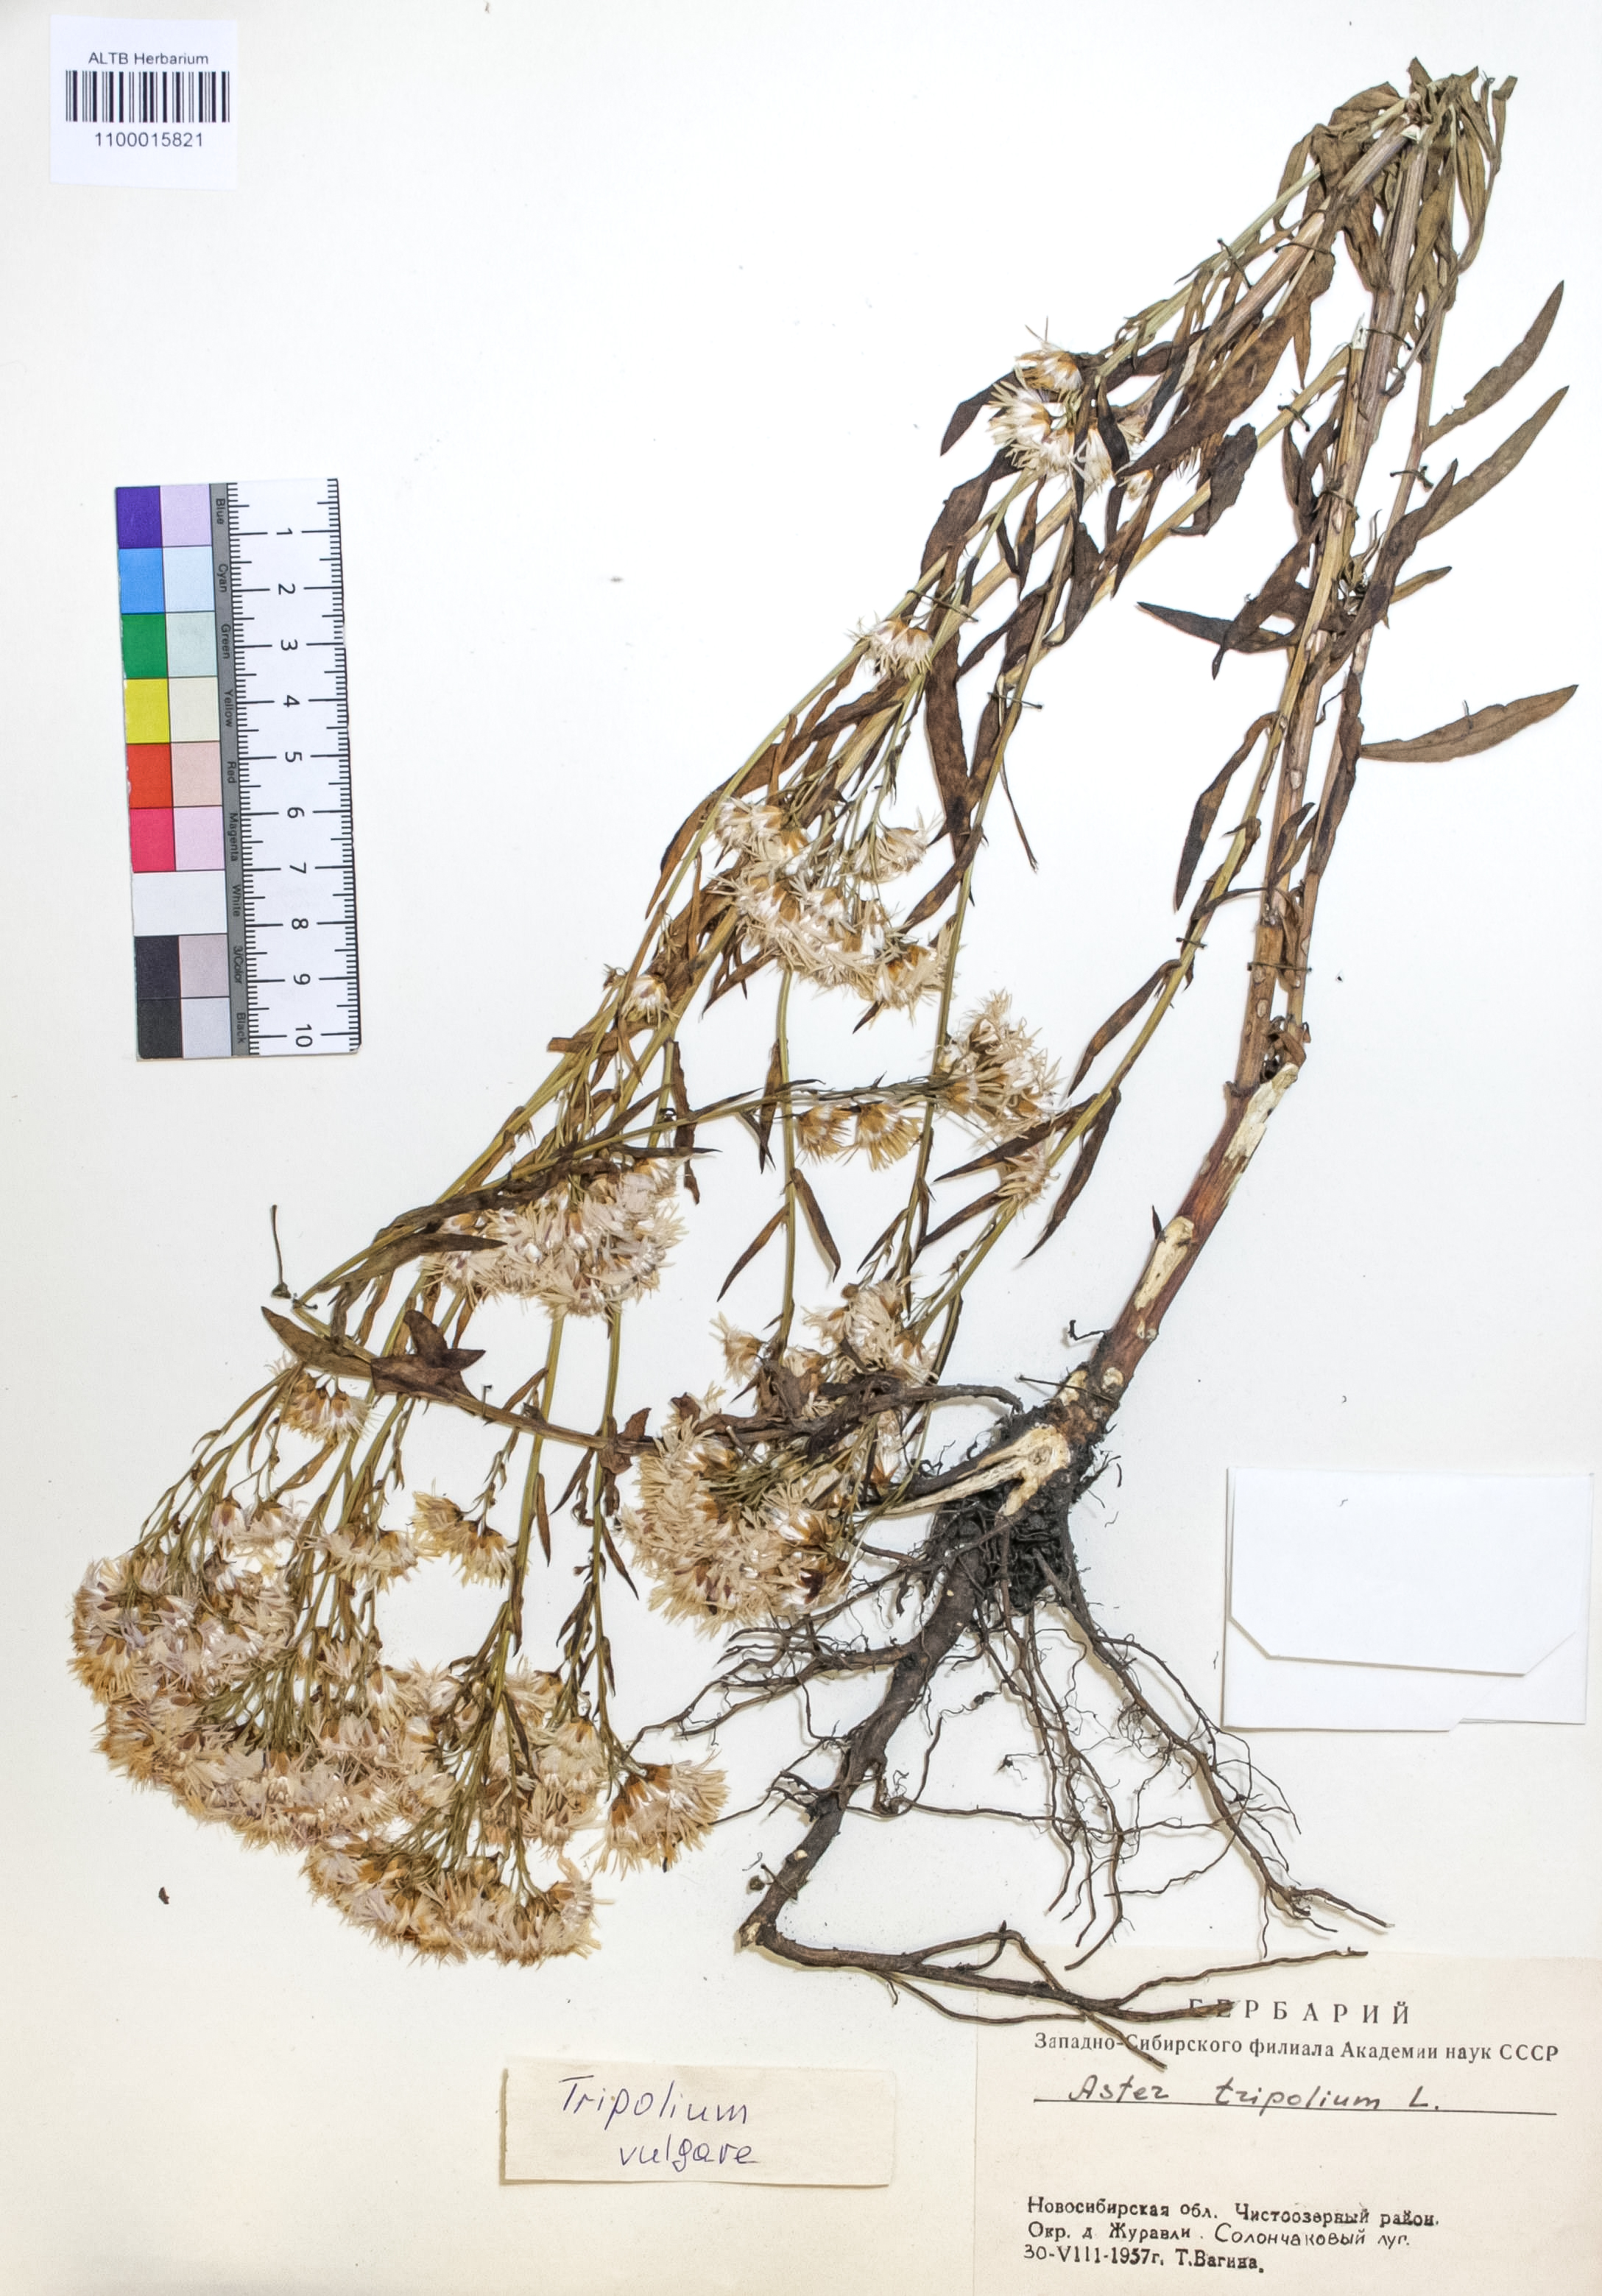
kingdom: Plantae
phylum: Tracheophyta
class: Magnoliopsida
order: Asterales
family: Asteraceae
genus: Tripolium
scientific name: Tripolium pannonicum
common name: Sea aster
